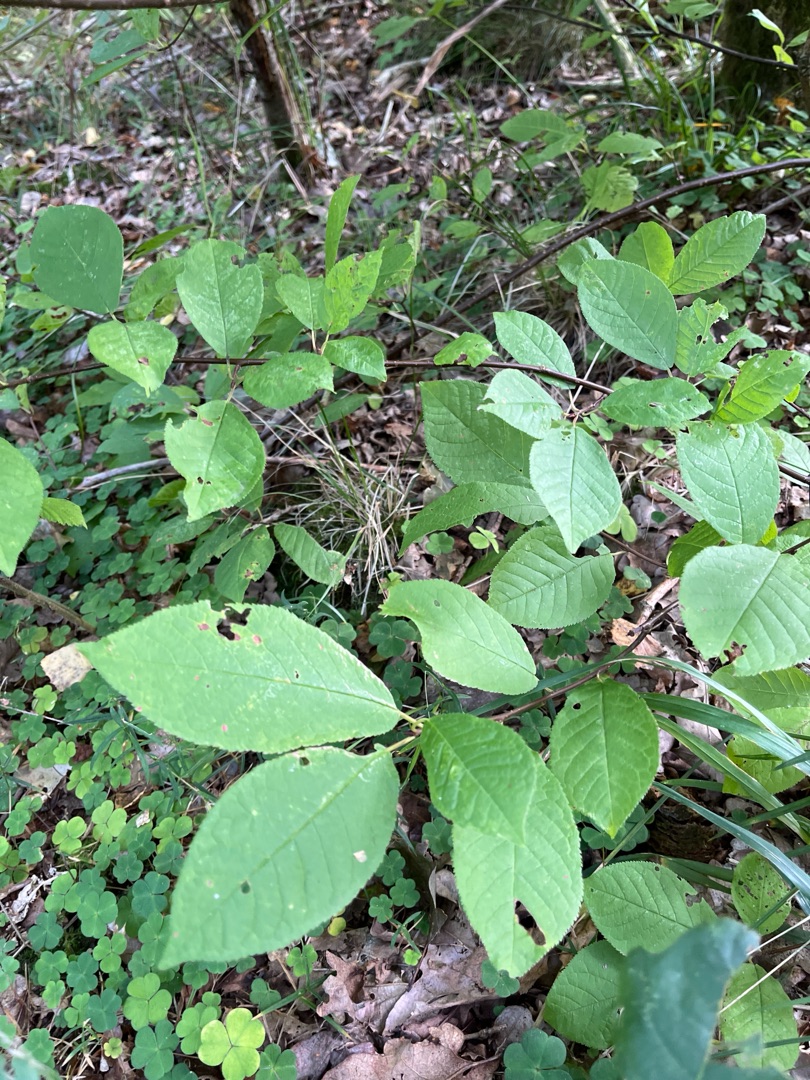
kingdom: Plantae
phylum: Tracheophyta
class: Magnoliopsida
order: Rosales
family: Rosaceae
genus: Prunus
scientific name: Prunus padus
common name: Almindelig hæg
